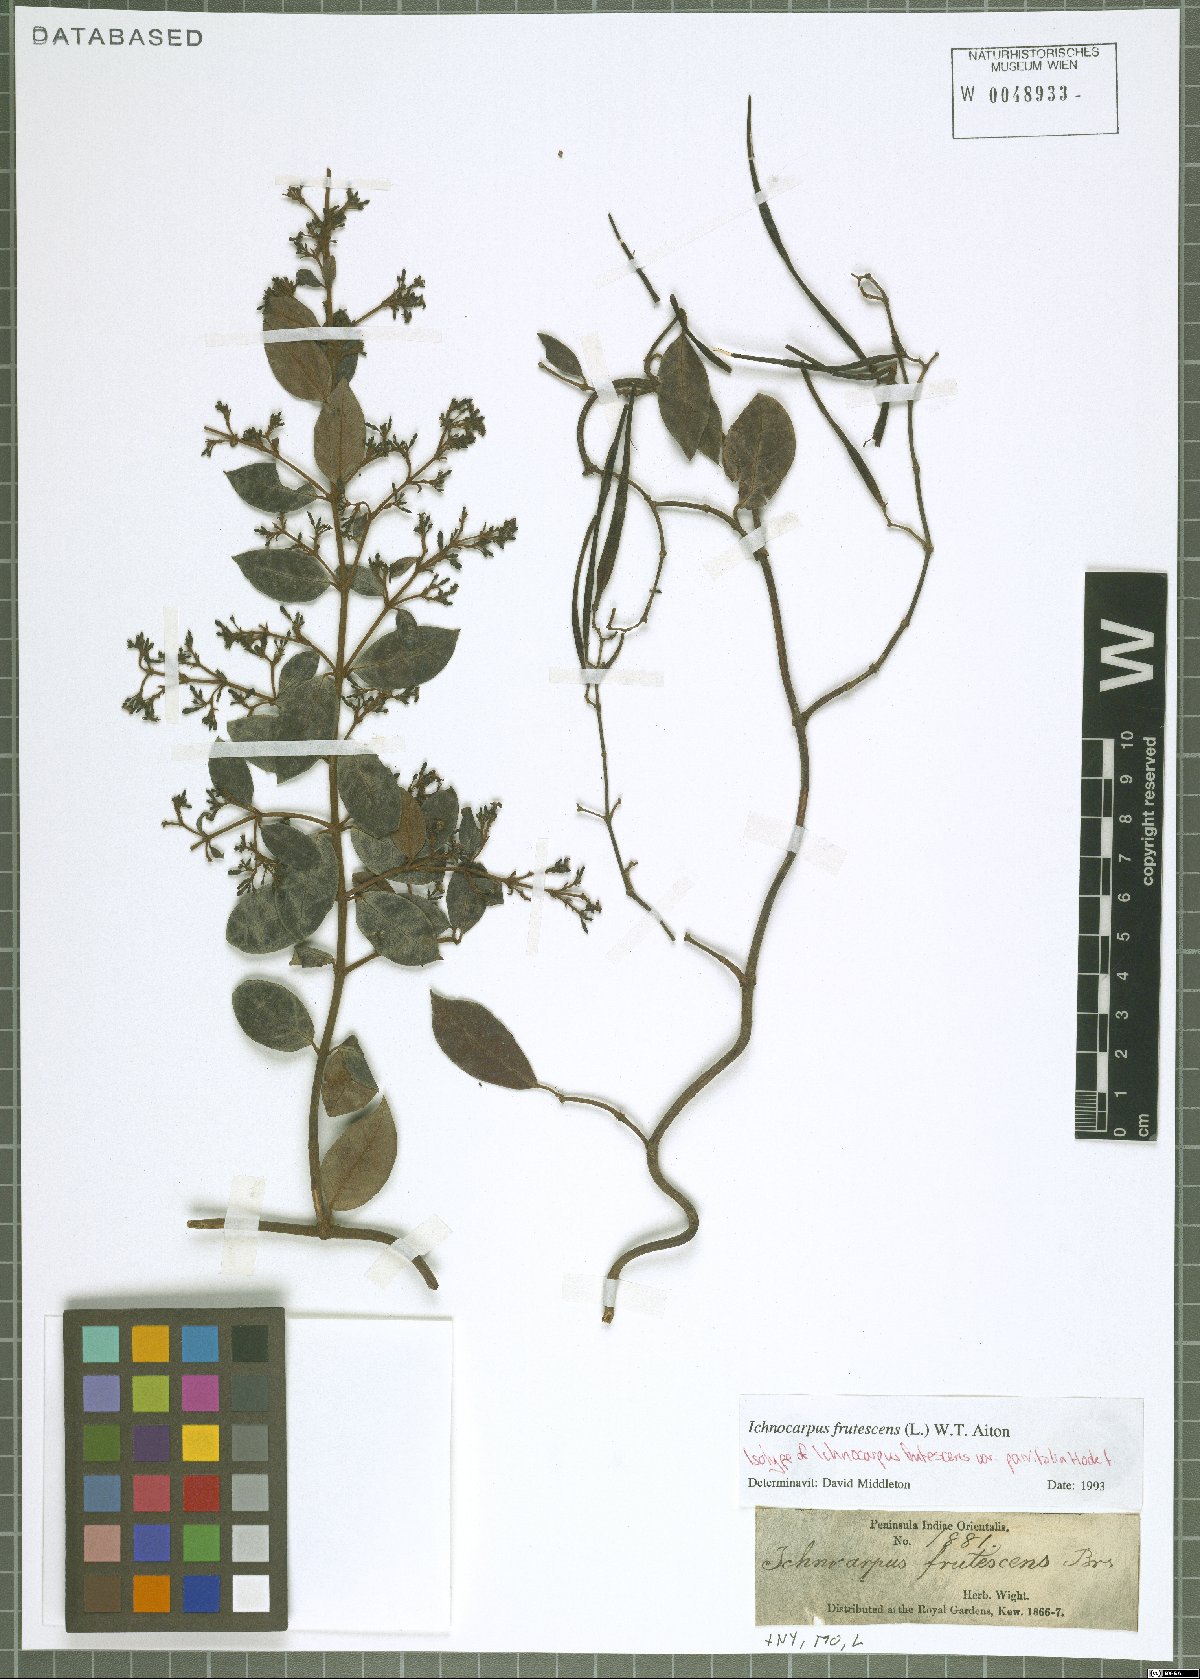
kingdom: Plantae
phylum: Tracheophyta
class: Magnoliopsida
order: Gentianales
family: Apocynaceae
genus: Ichnocarpus
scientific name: Ichnocarpus frutescens
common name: Ichnocarpus
